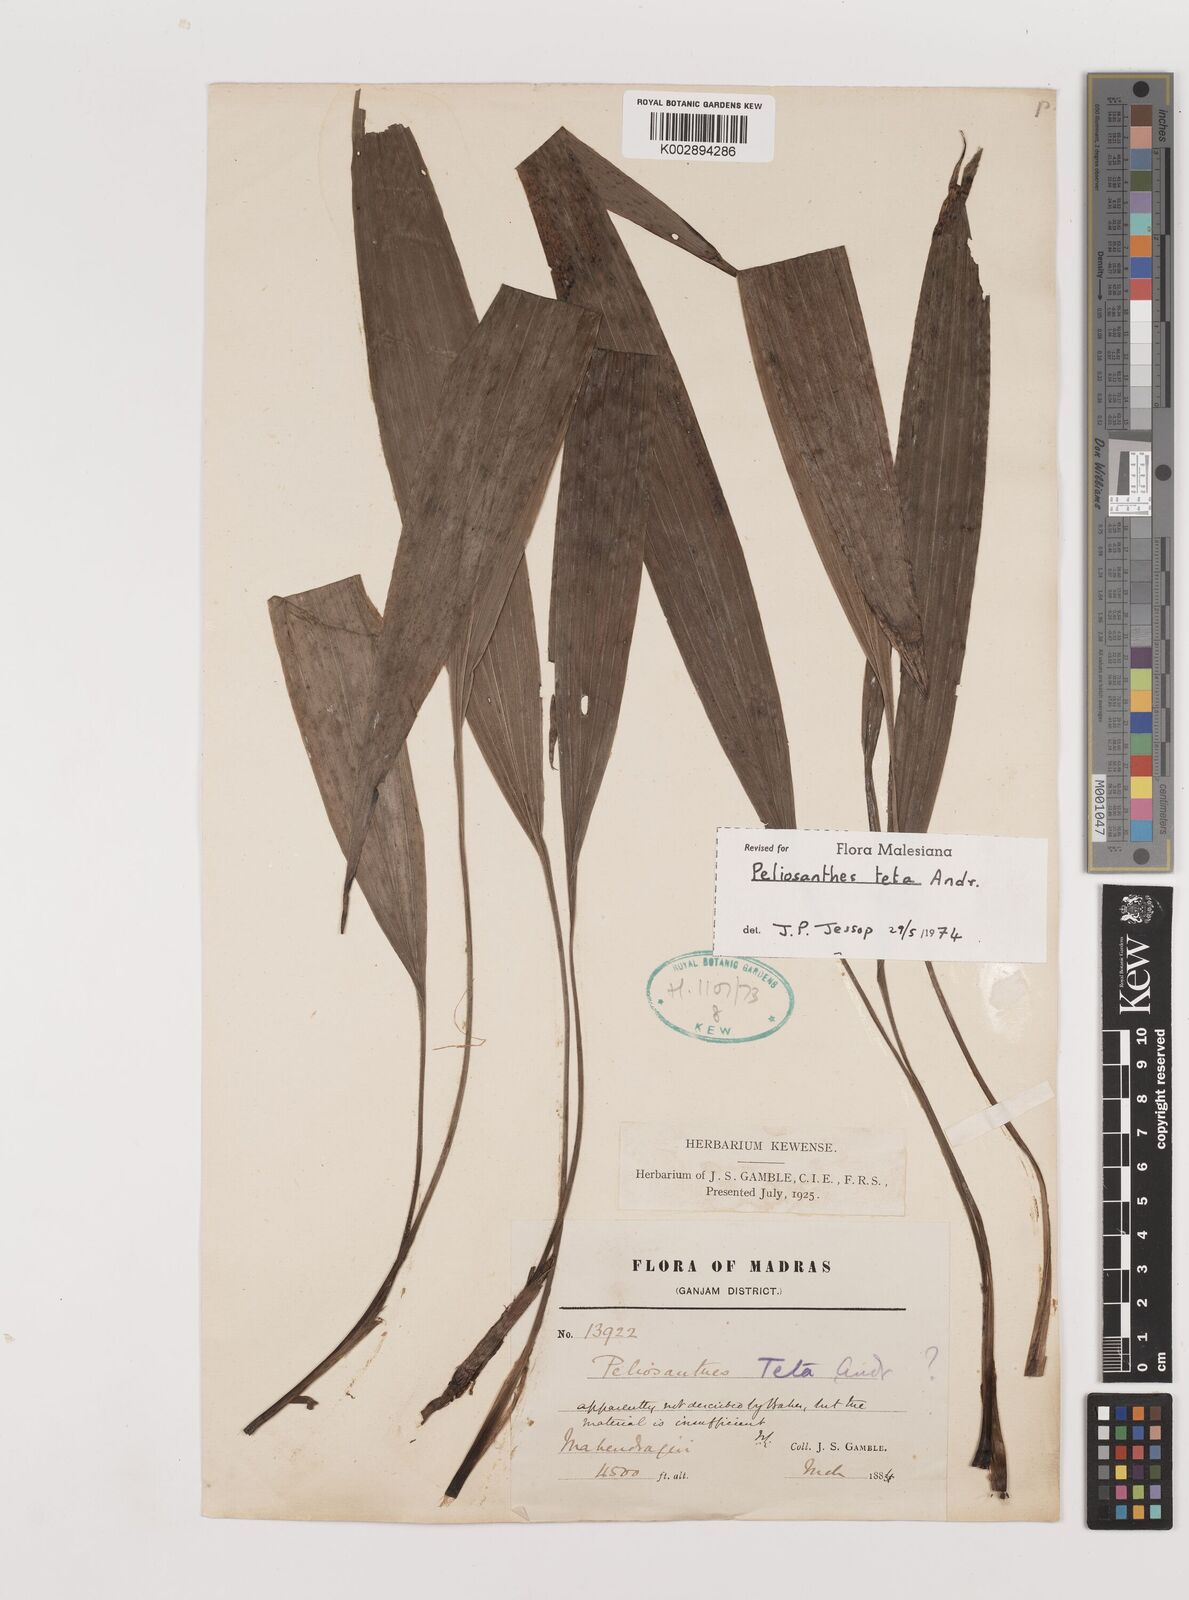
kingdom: Plantae
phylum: Tracheophyta
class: Liliopsida
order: Asparagales
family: Asparagaceae
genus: Peliosanthes
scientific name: Peliosanthes teta
